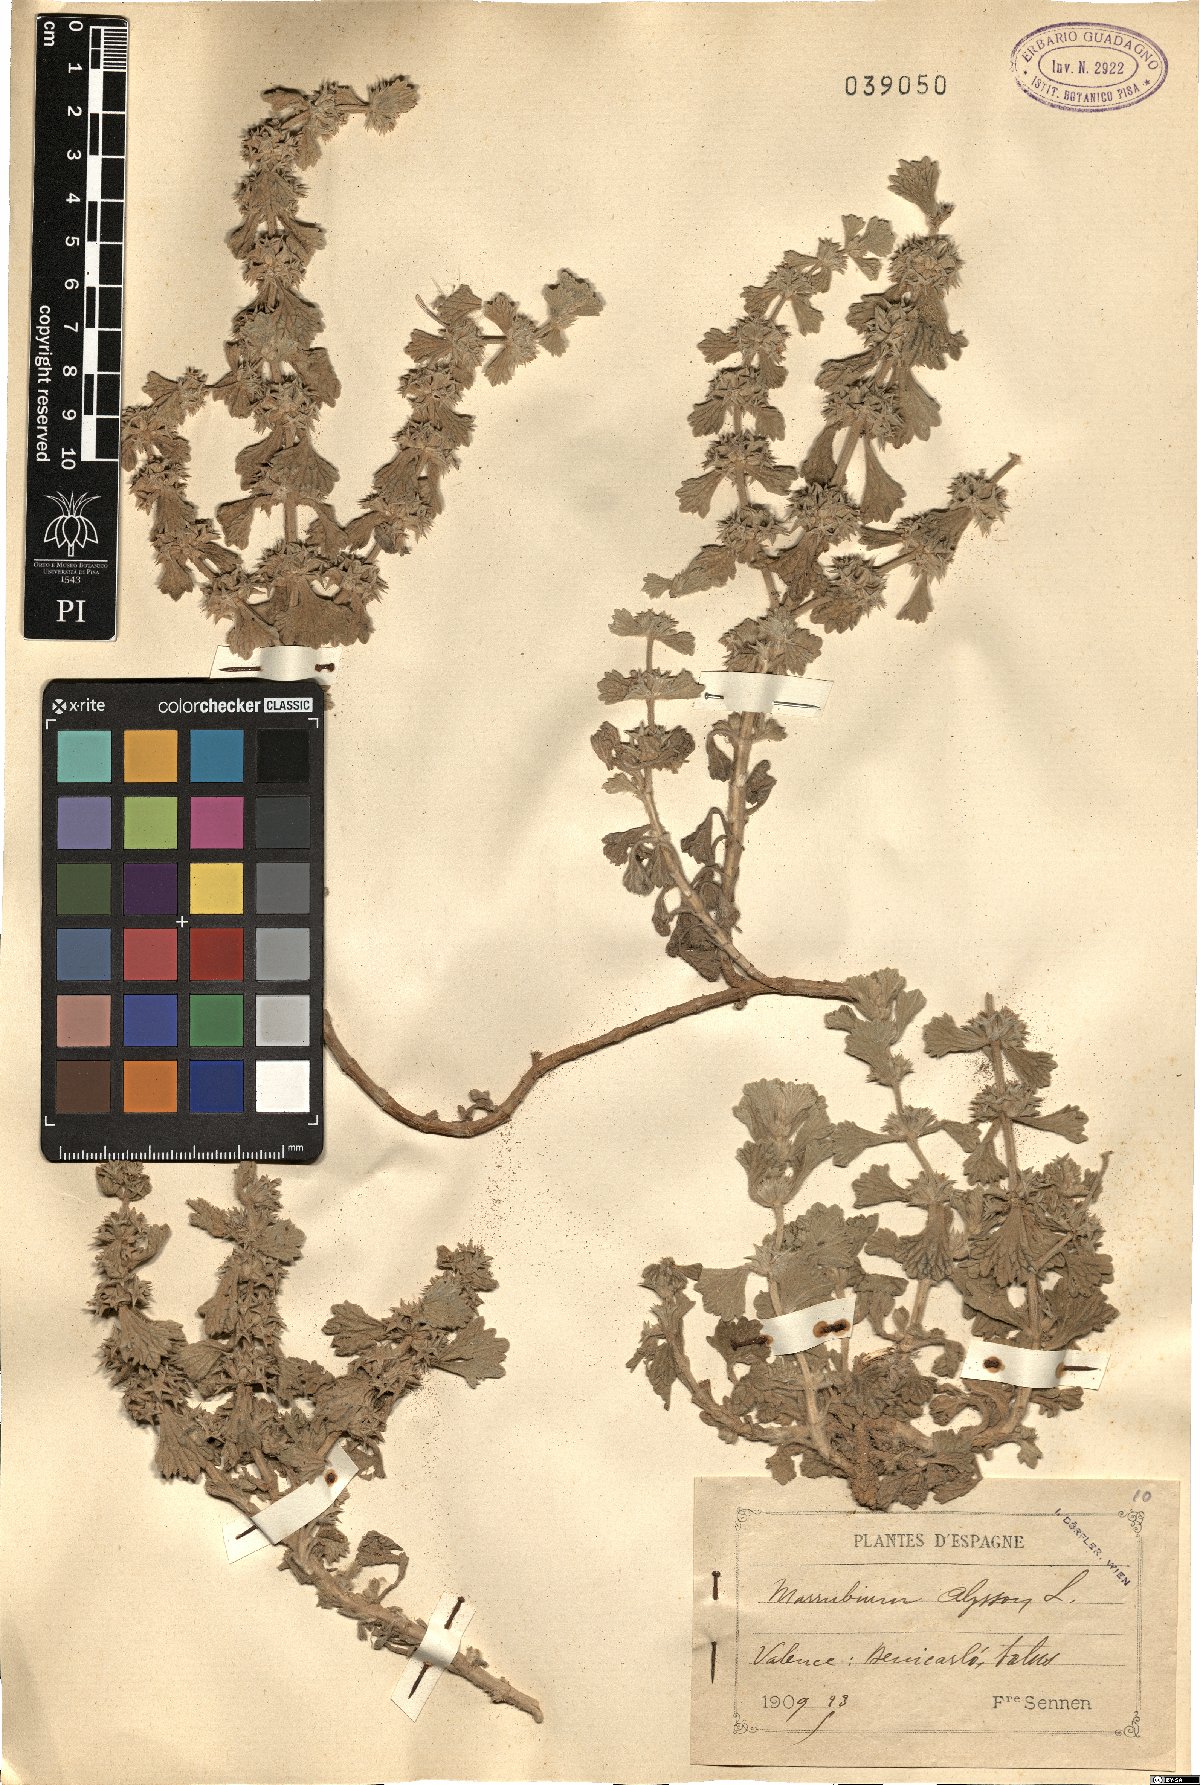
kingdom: Plantae
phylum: Tracheophyta
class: Magnoliopsida
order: Lamiales
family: Lamiaceae
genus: Marrubium
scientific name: Marrubium alysson
